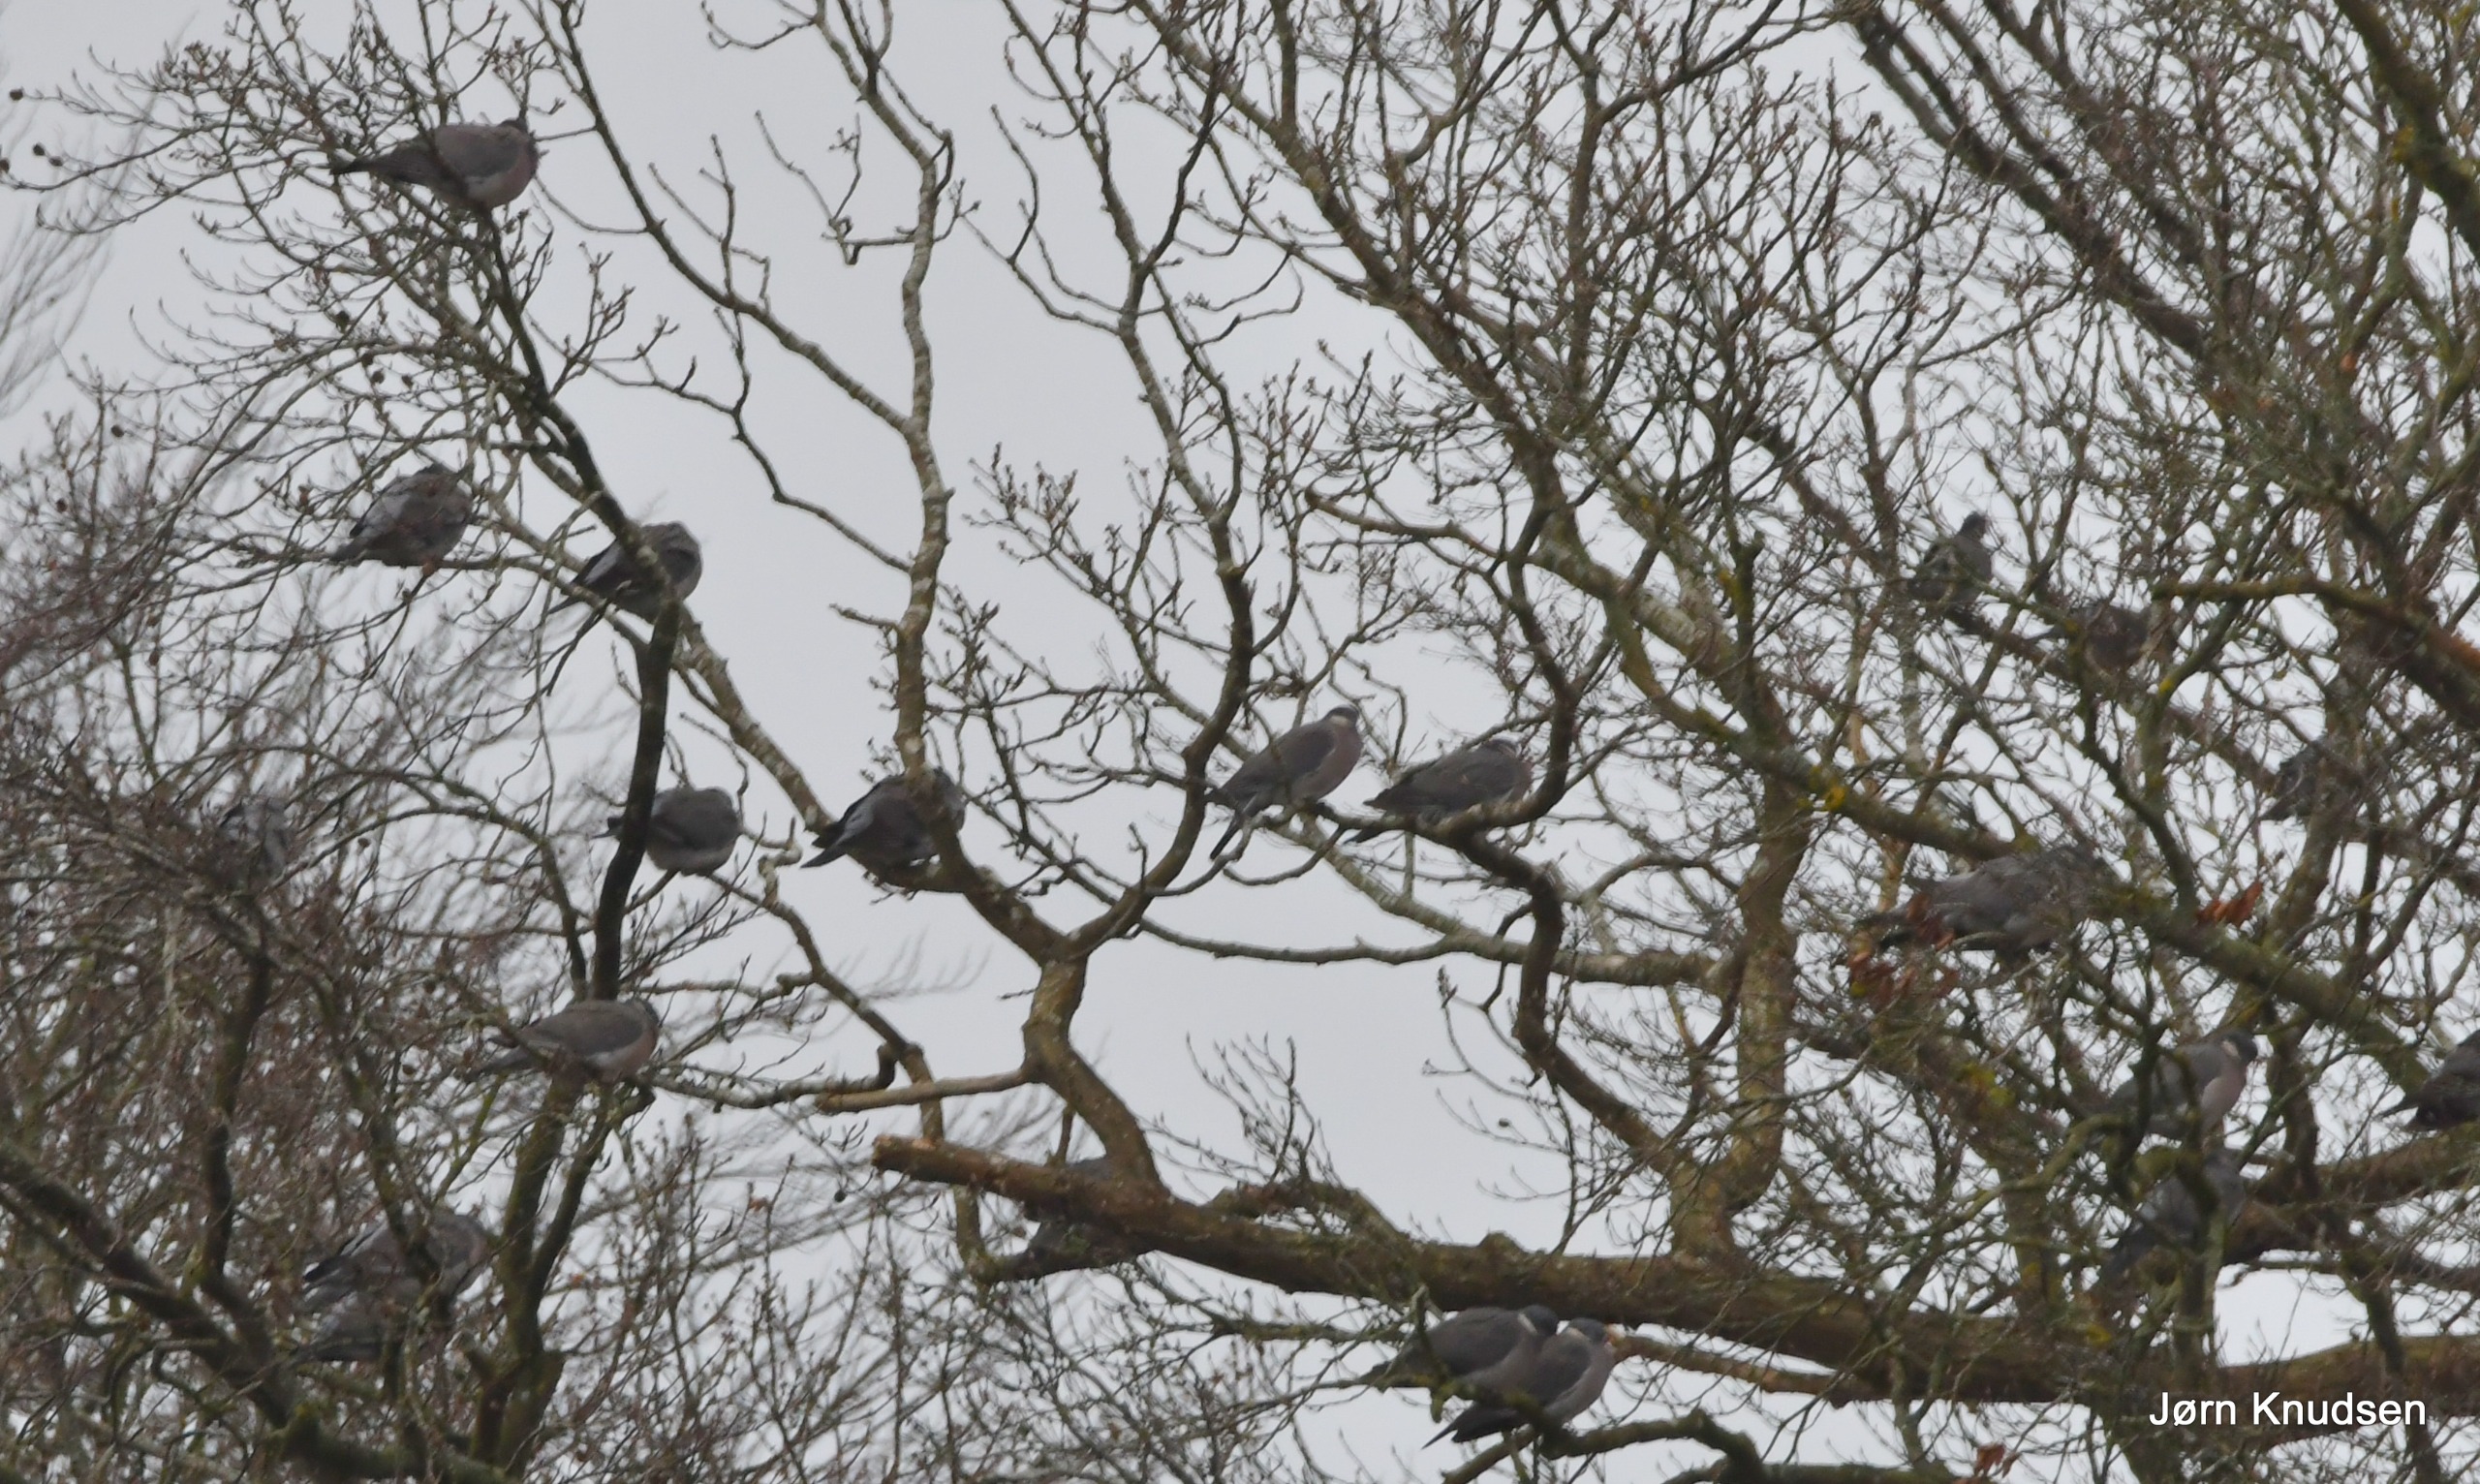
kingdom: Animalia
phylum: Chordata
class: Aves
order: Columbiformes
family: Columbidae
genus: Columba
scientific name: Columba palumbus
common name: Ringdue
